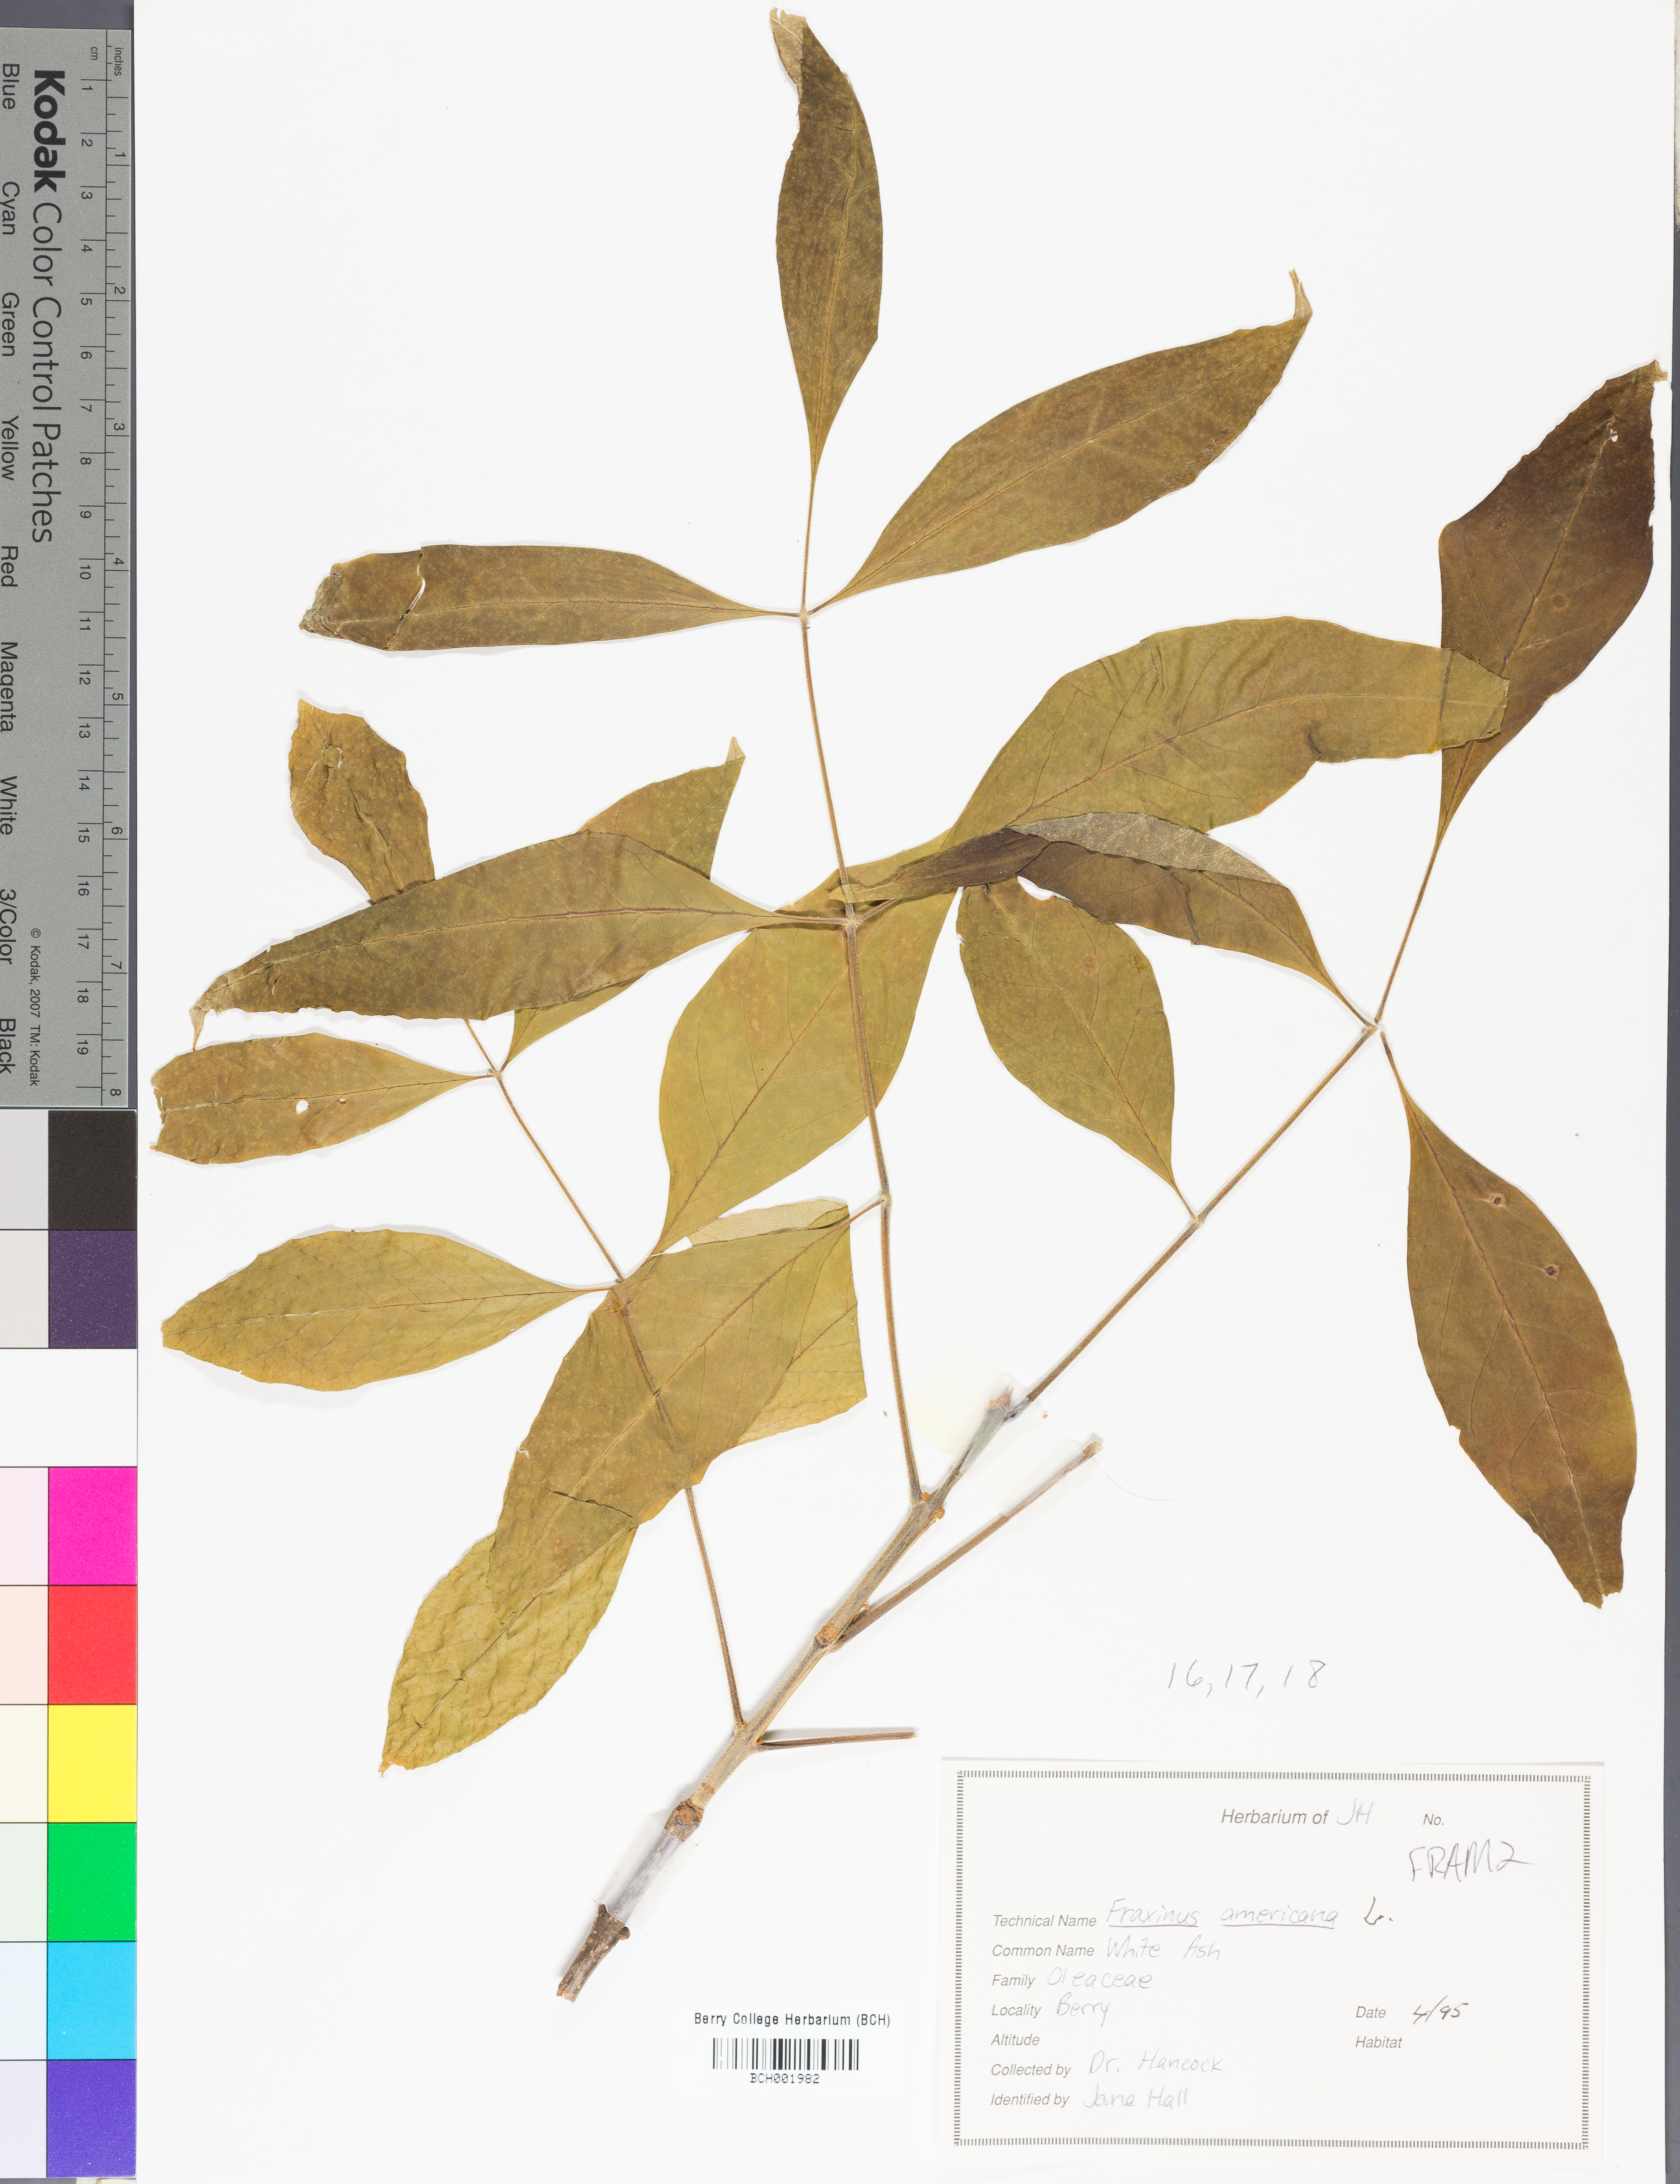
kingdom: Plantae
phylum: Tracheophyta
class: Magnoliopsida
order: Lamiales
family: Oleaceae
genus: Fraxinus
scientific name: Fraxinus americana
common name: White ash
